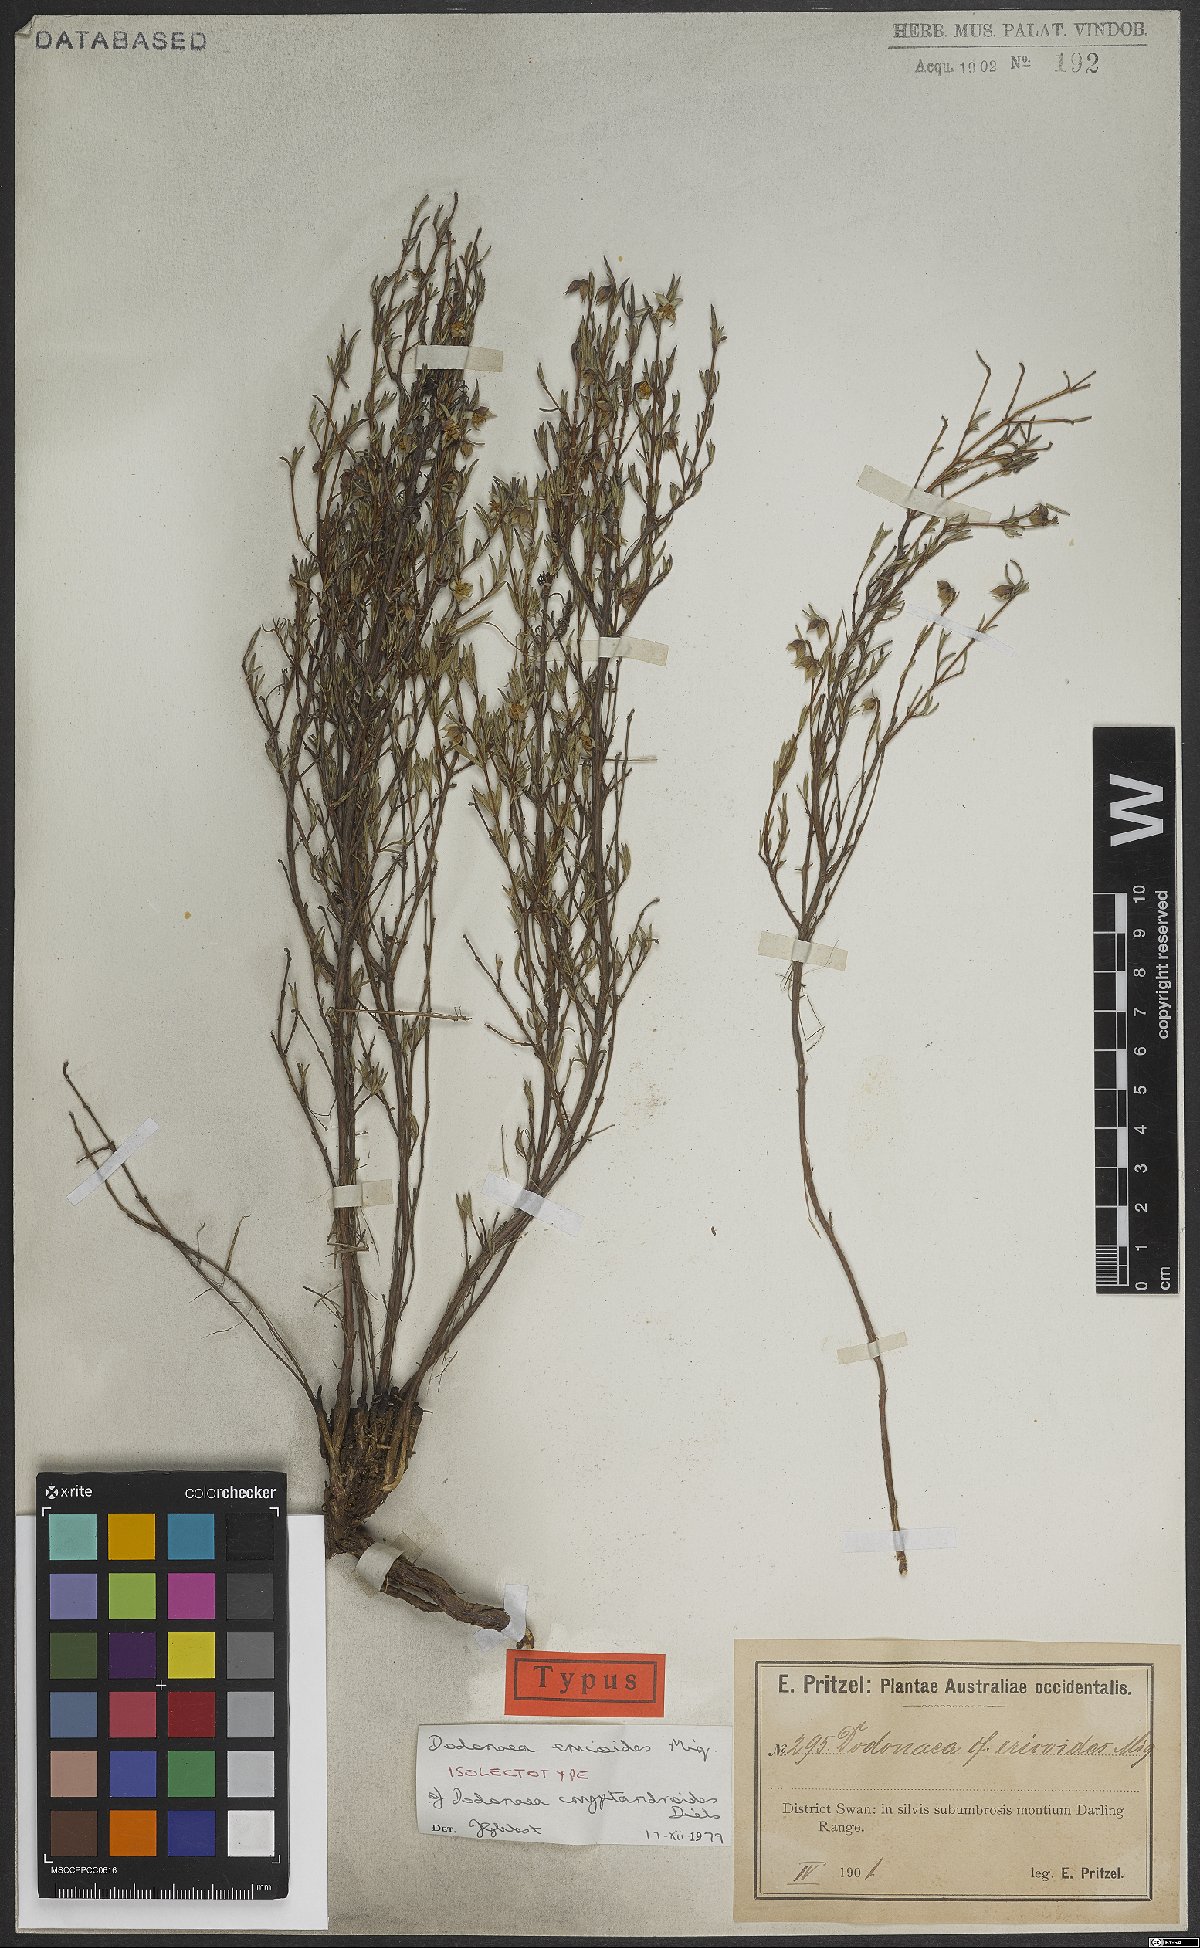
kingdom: Plantae
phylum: Tracheophyta
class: Magnoliopsida
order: Sapindales
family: Sapindaceae
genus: Dodonaea
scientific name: Dodonaea ericoides
